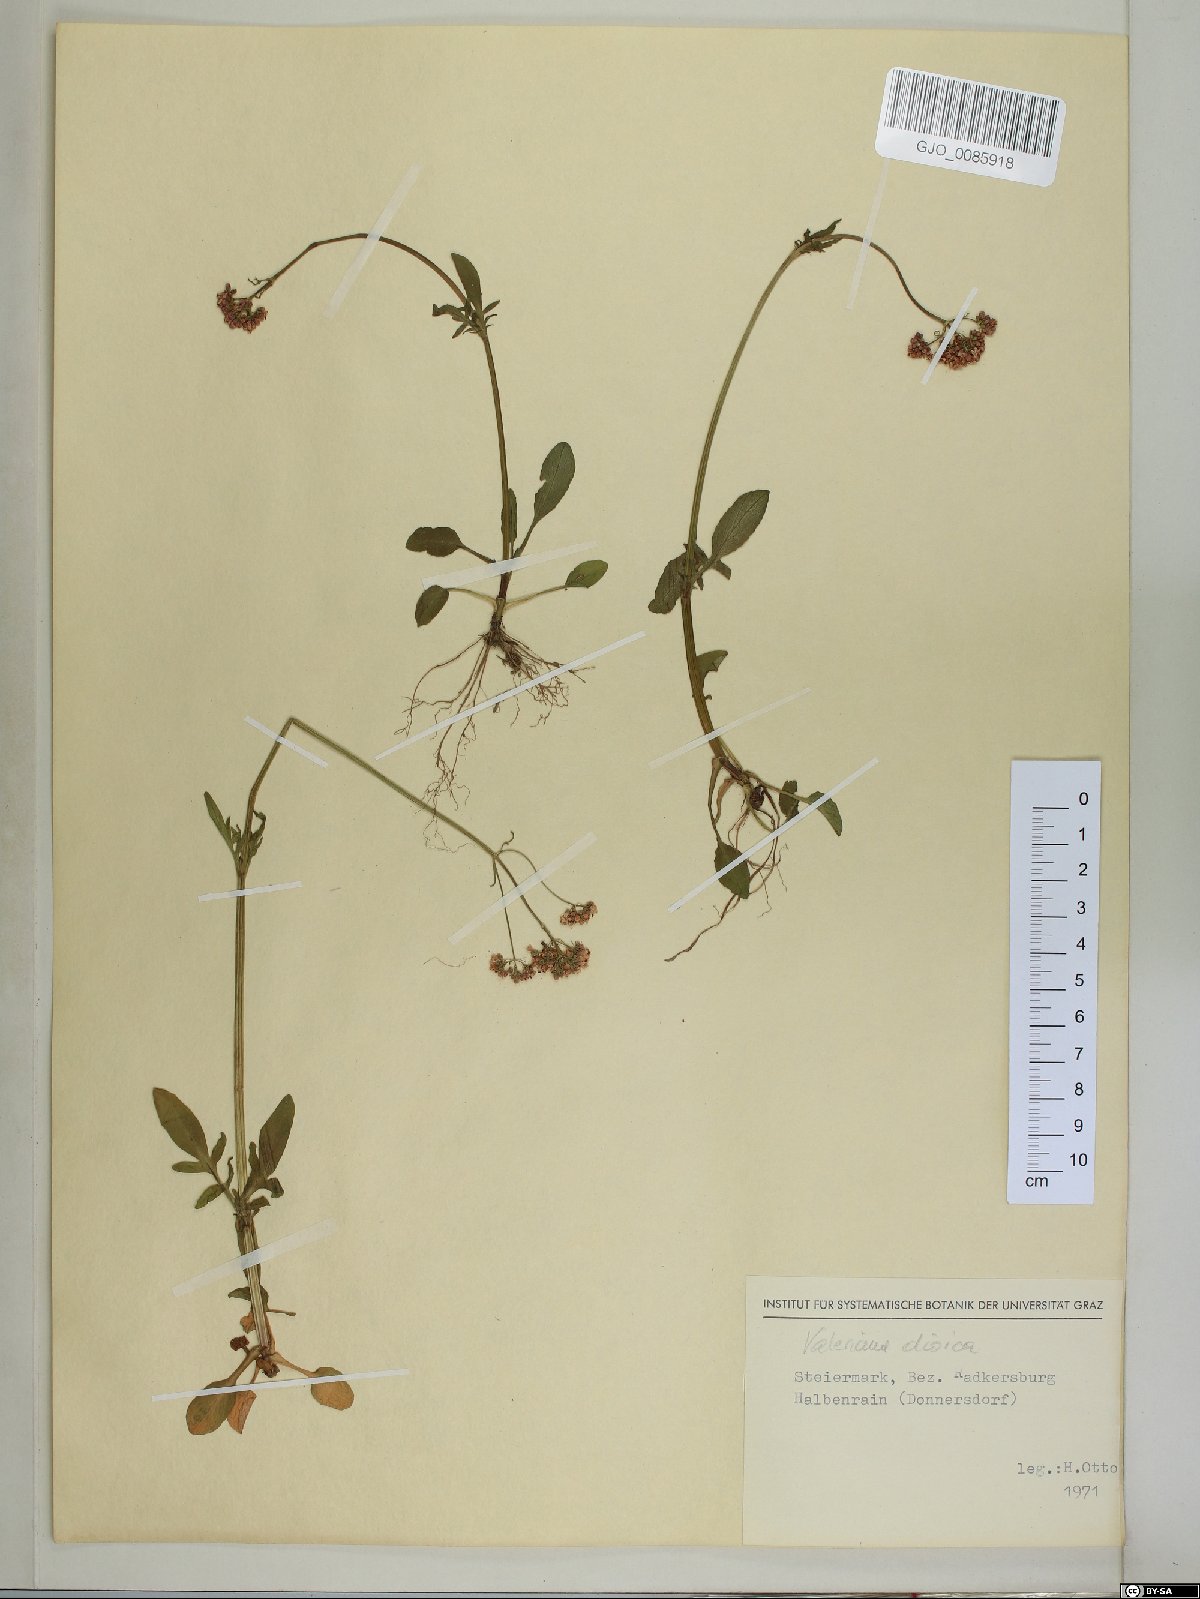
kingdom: Plantae
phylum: Tracheophyta
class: Magnoliopsida
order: Dipsacales
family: Caprifoliaceae
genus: Valeriana
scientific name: Valeriana dioica
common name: Marsh valerian
